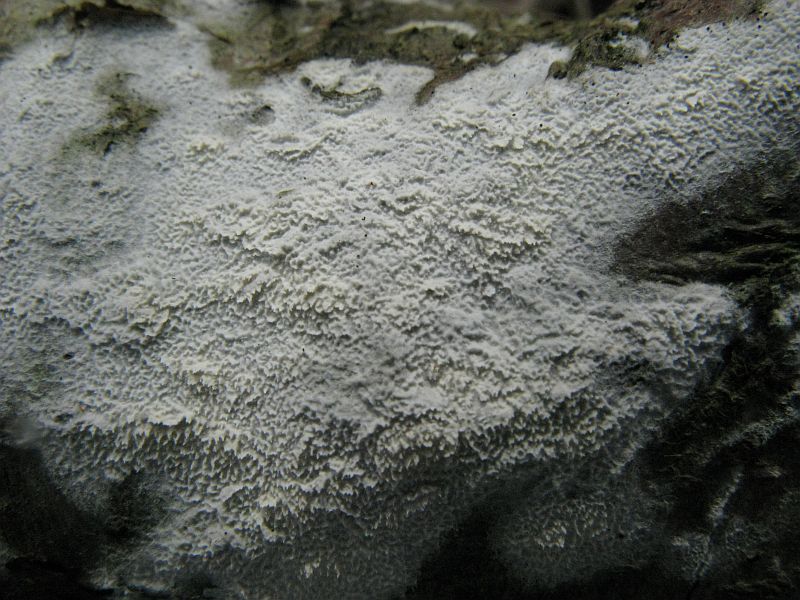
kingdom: Fungi
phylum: Basidiomycota
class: Agaricomycetes
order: Hymenochaetales
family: Schizoporaceae
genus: Schizopora
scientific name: Schizopora paradoxa
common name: hvid tandsvamp
